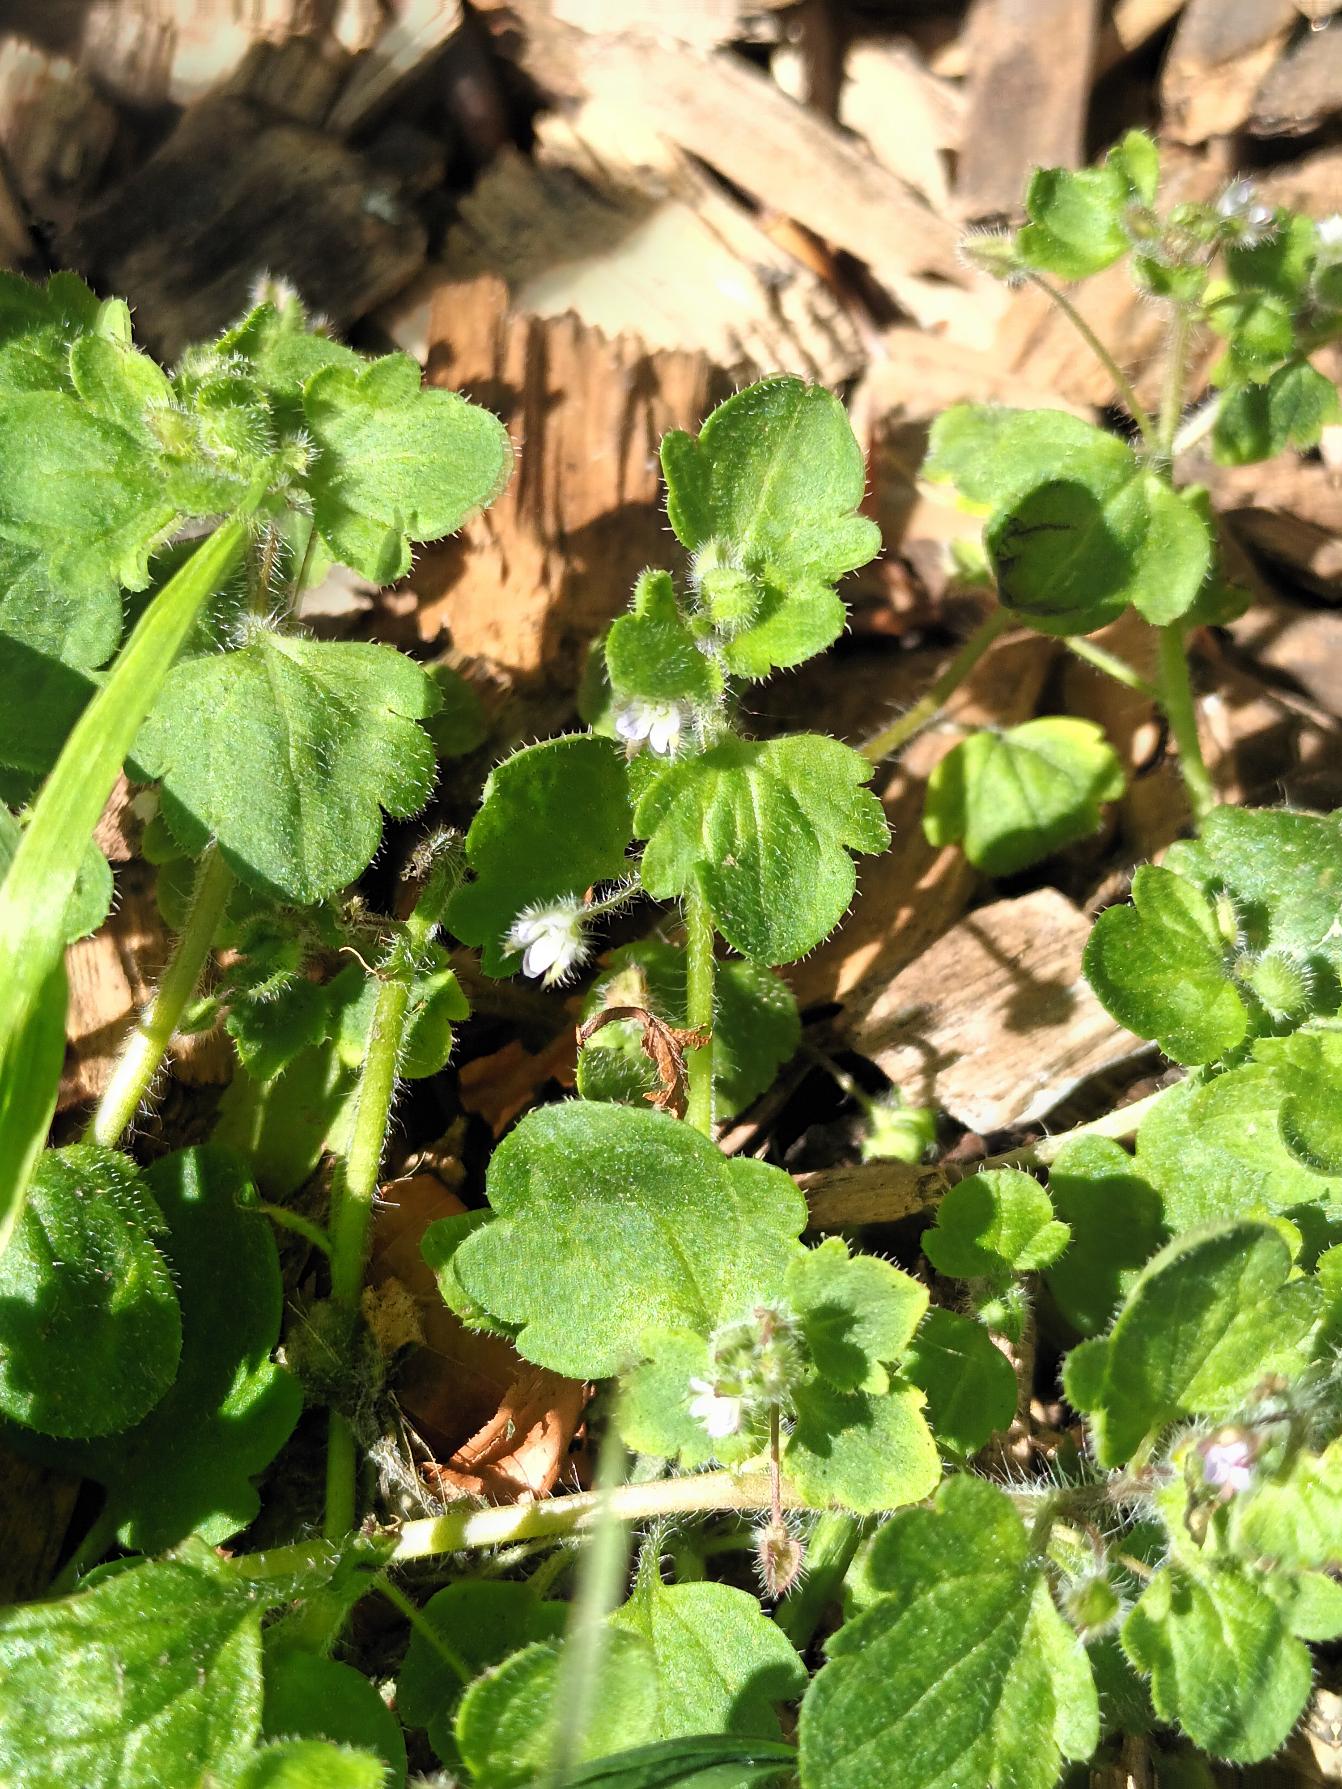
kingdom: Plantae
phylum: Tracheophyta
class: Magnoliopsida
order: Lamiales
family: Plantaginaceae
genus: Veronica
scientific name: Veronica sublobata
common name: Krat-ærenpris
